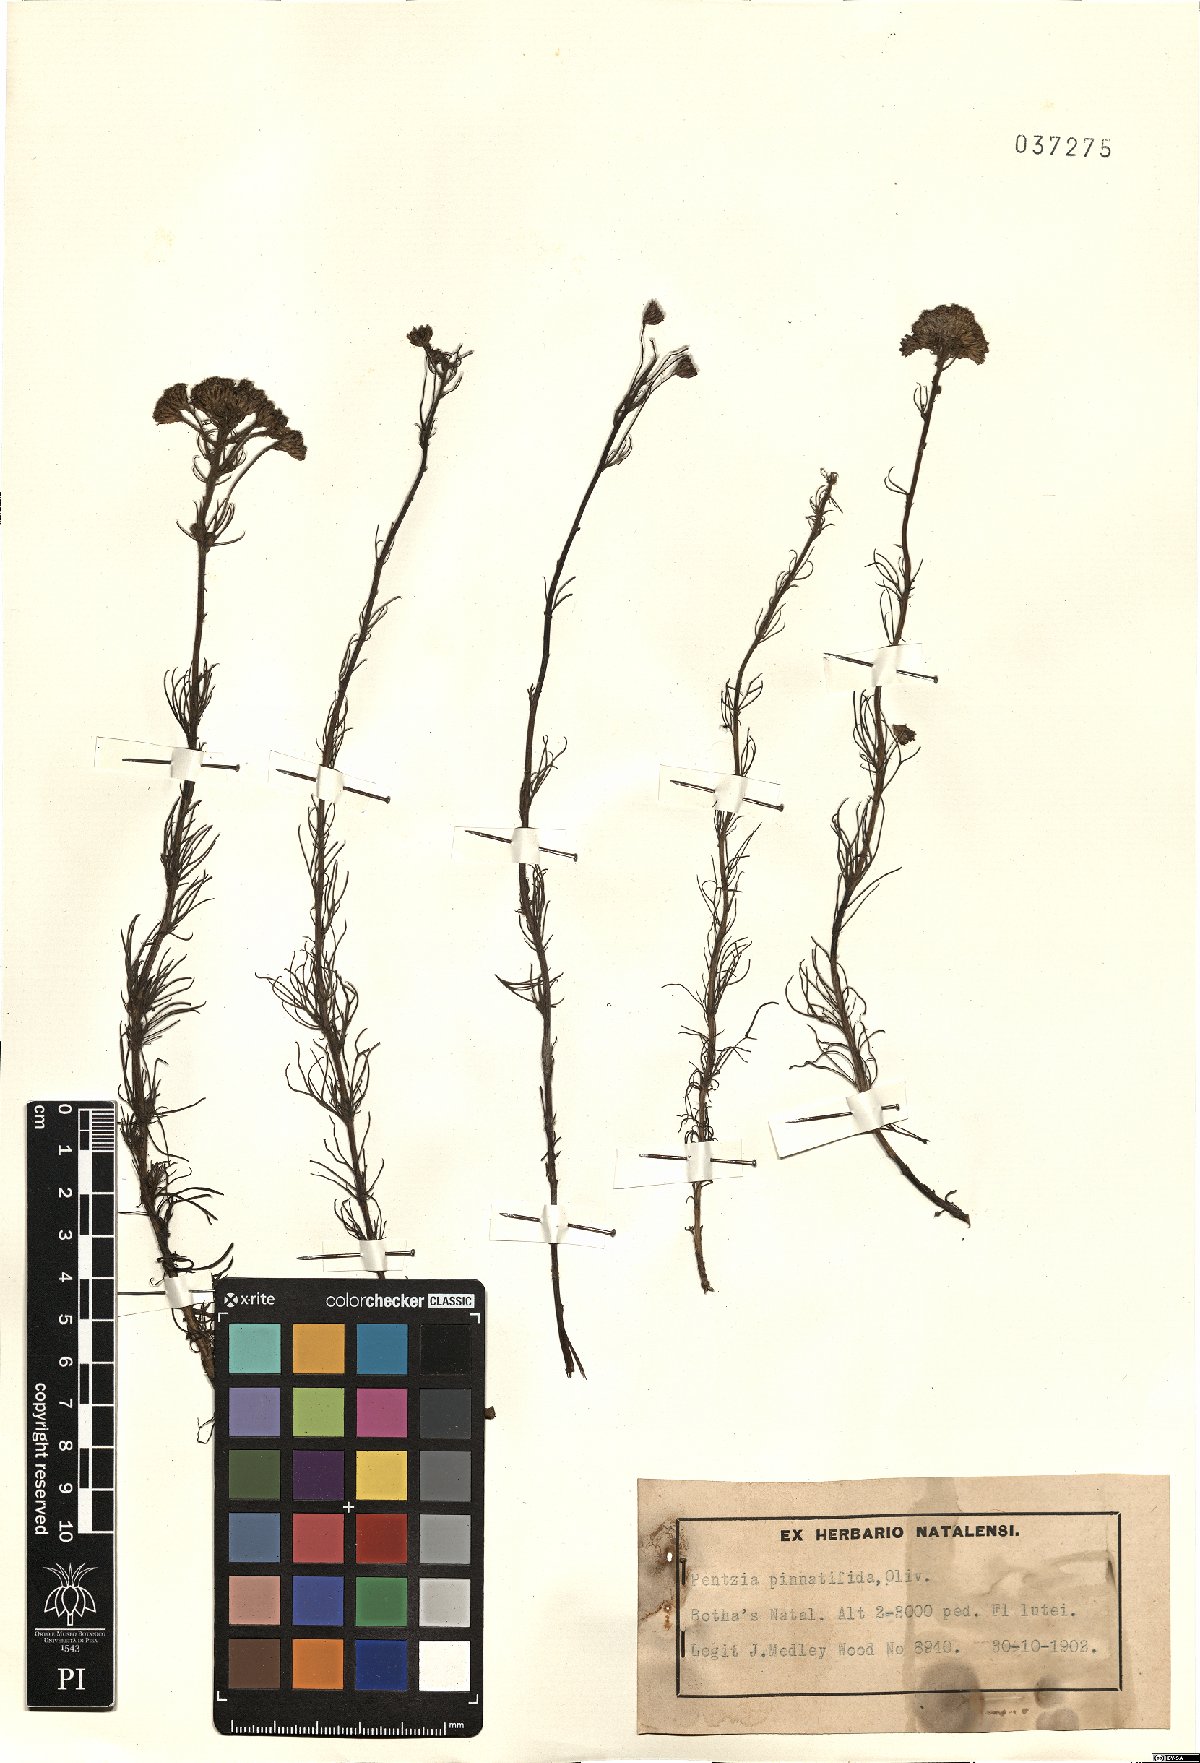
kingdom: Plantae
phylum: Tracheophyta
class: Magnoliopsida
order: Asterales
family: Asteraceae
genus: Phymaspermum
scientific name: Phymaspermum pinnatifidum
